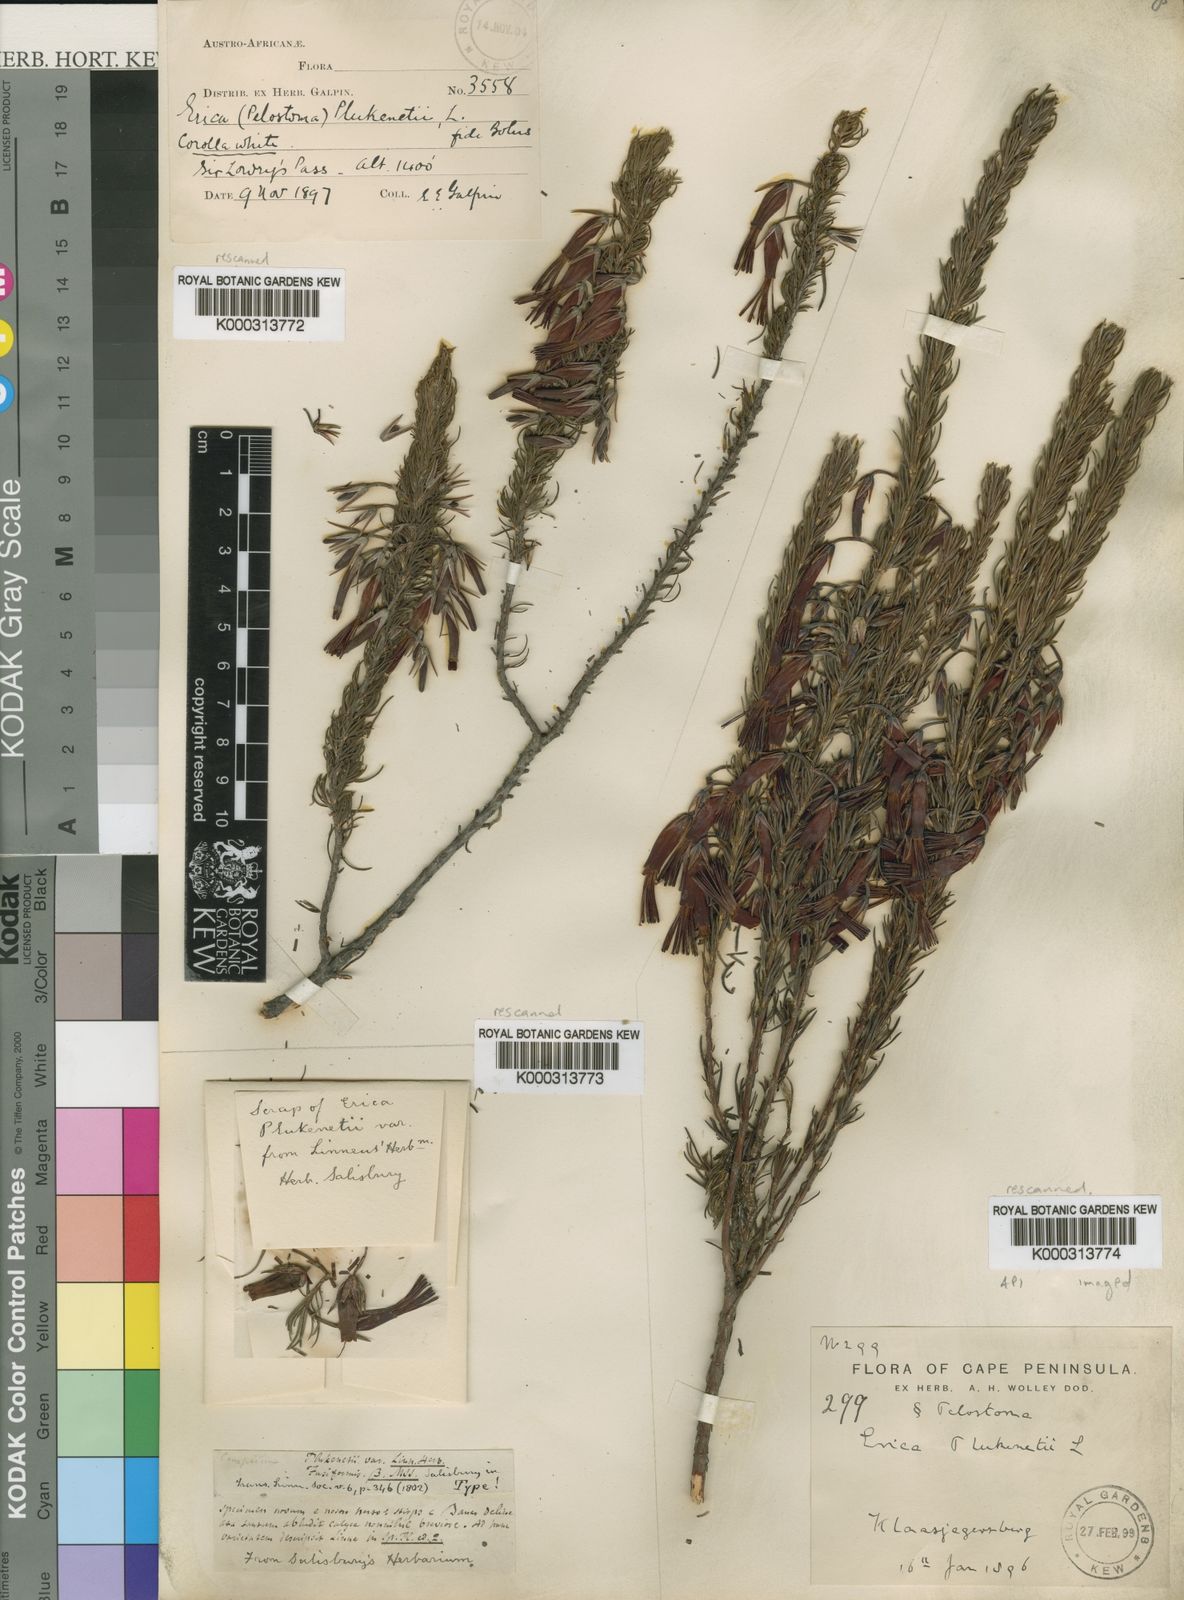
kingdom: Plantae
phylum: Tracheophyta
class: Magnoliopsida
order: Ericales
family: Ericaceae
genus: Erica
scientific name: Erica plukenetii
